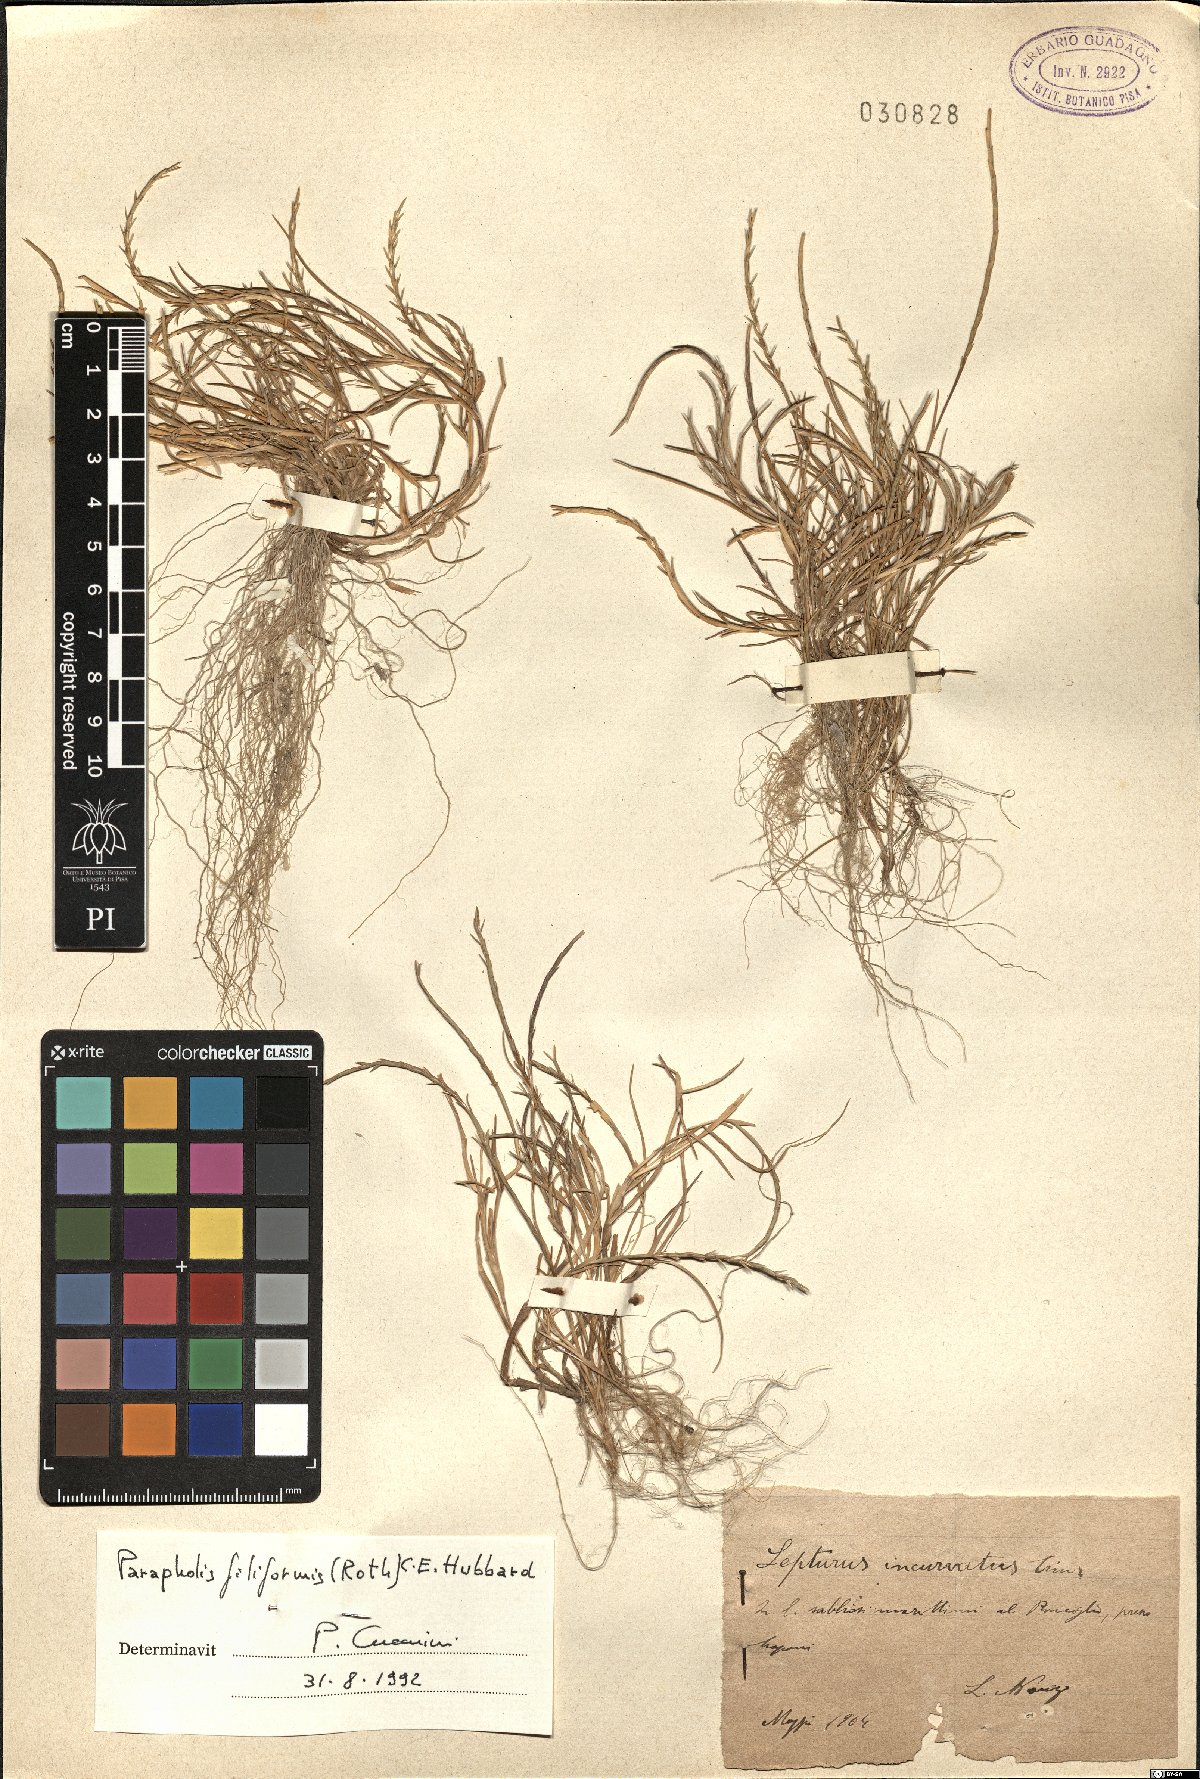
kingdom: Plantae
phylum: Tracheophyta
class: Liliopsida
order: Poales
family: Poaceae
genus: Parapholis
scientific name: Parapholis filiformis
